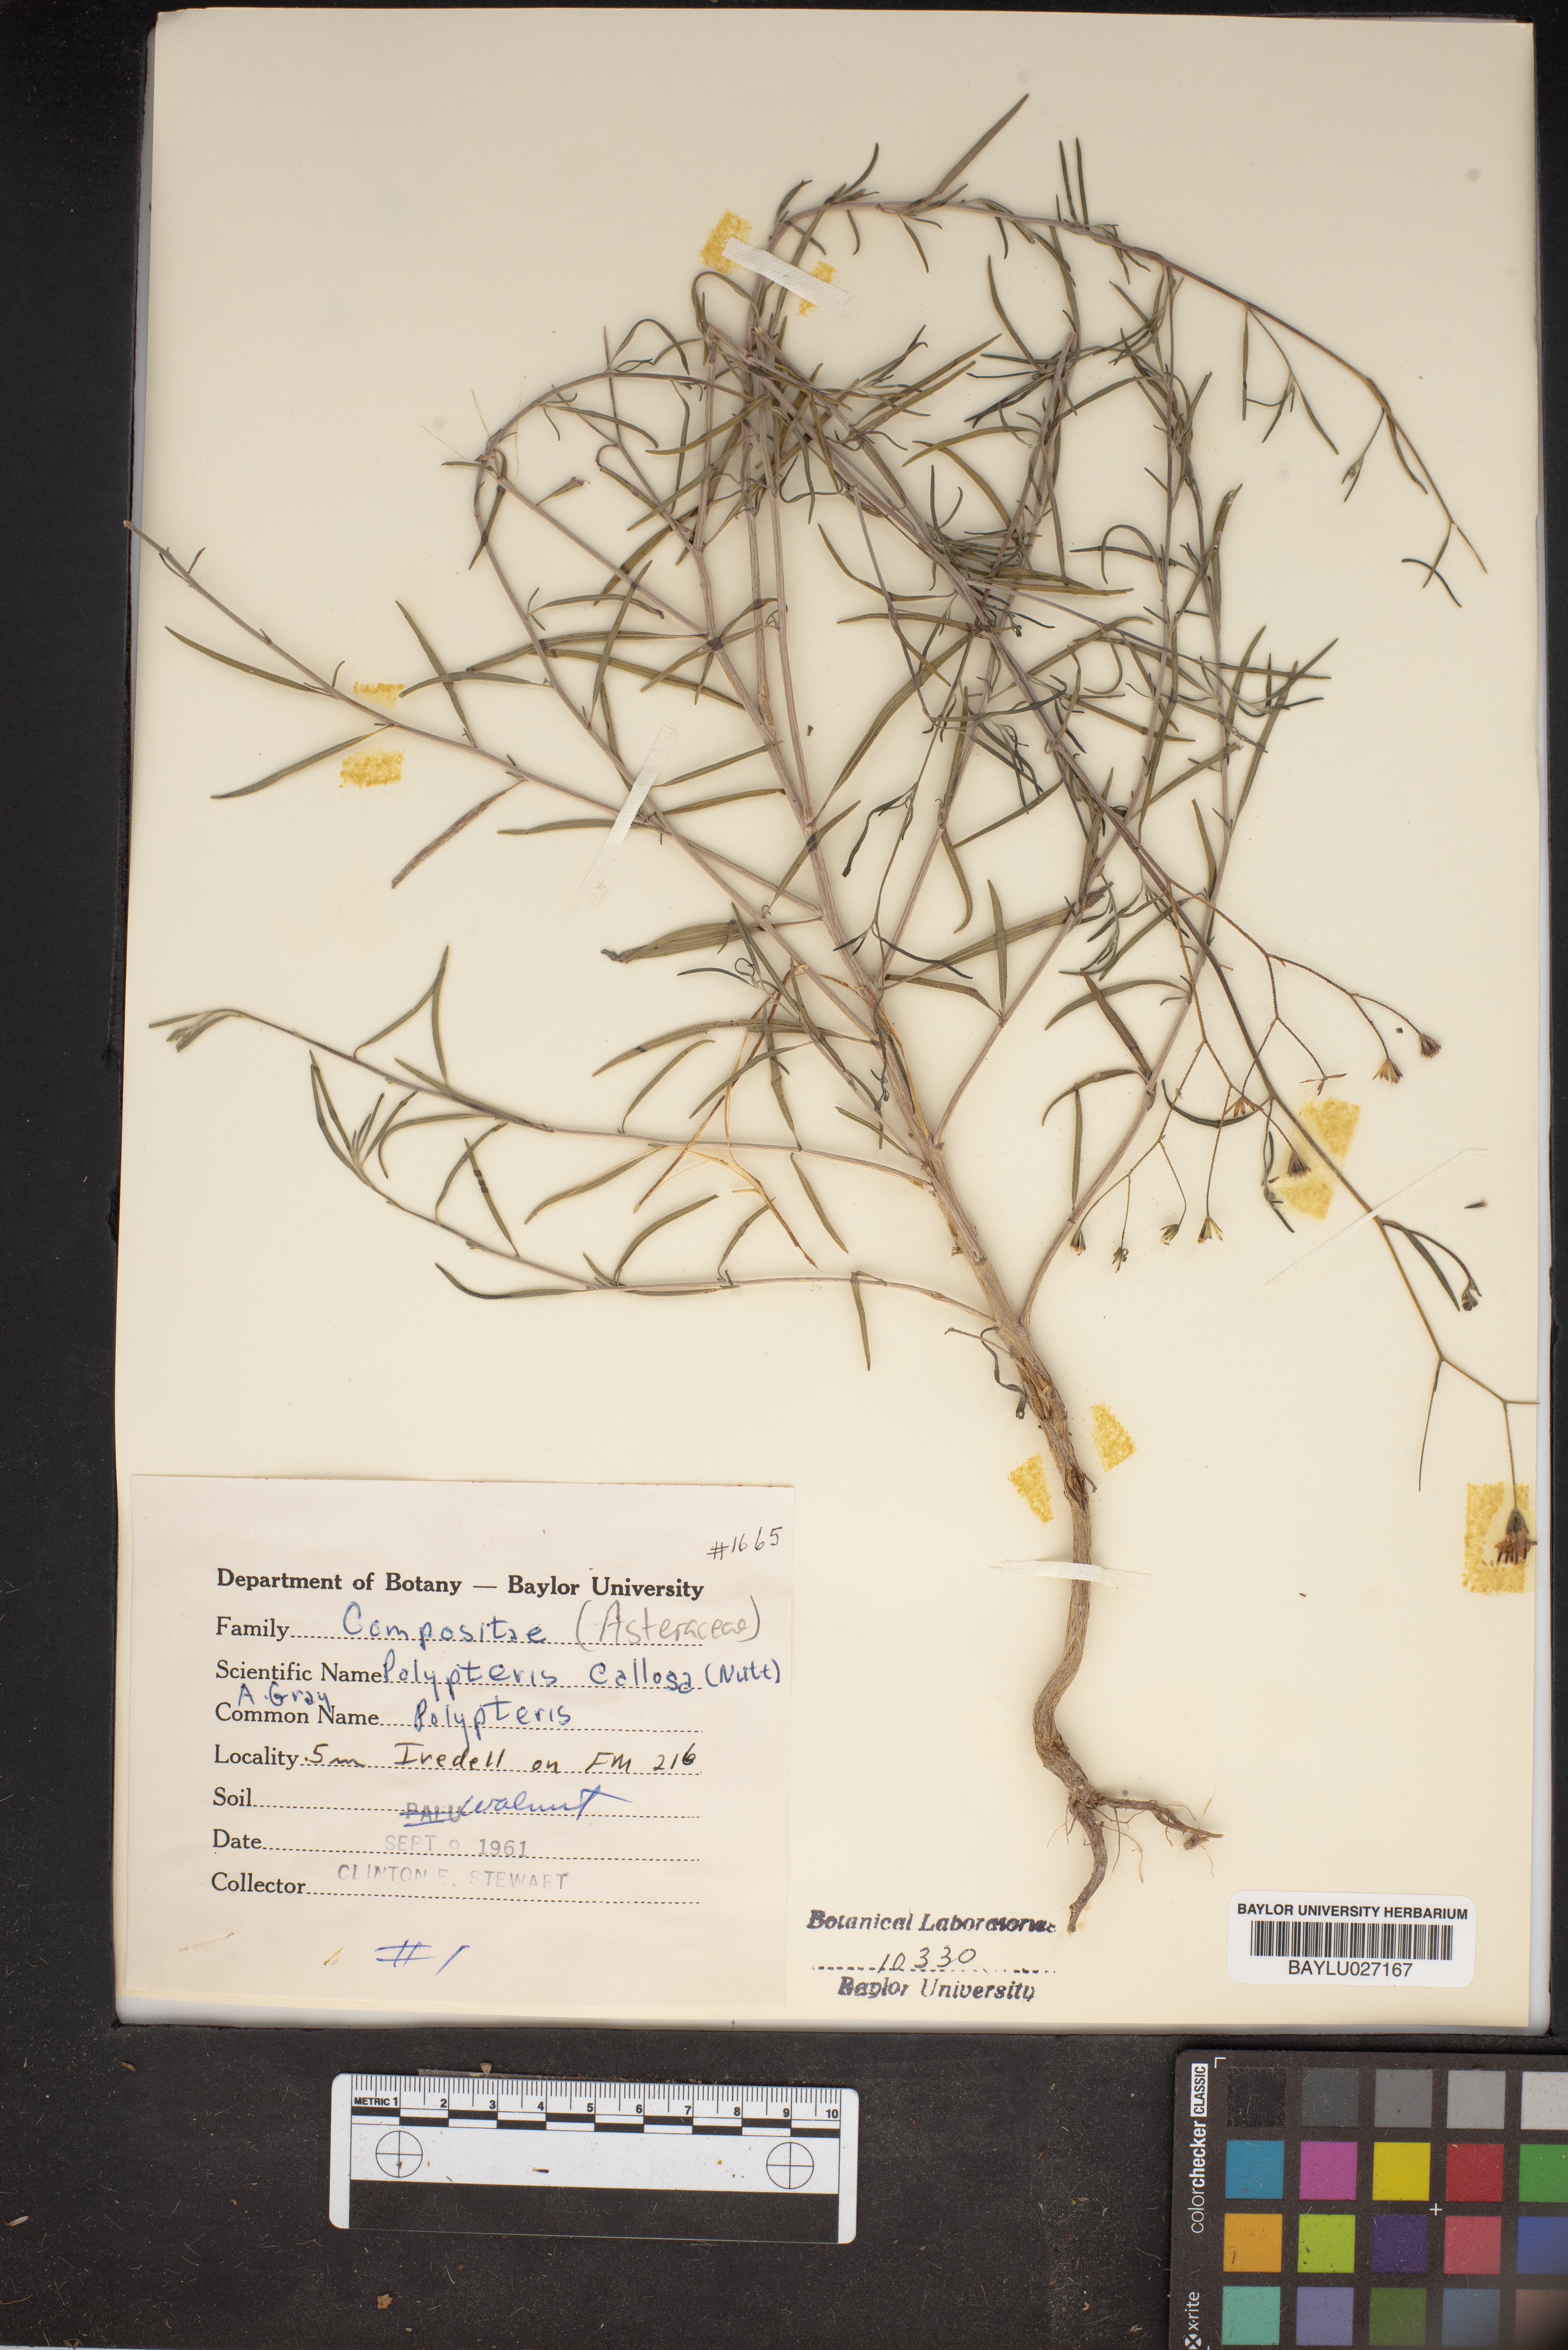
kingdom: Plantae
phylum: Tracheophyta
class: Magnoliopsida
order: Asterales
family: Asteraceae
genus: Palafoxia
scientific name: Palafoxia callosa
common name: Small palafox
